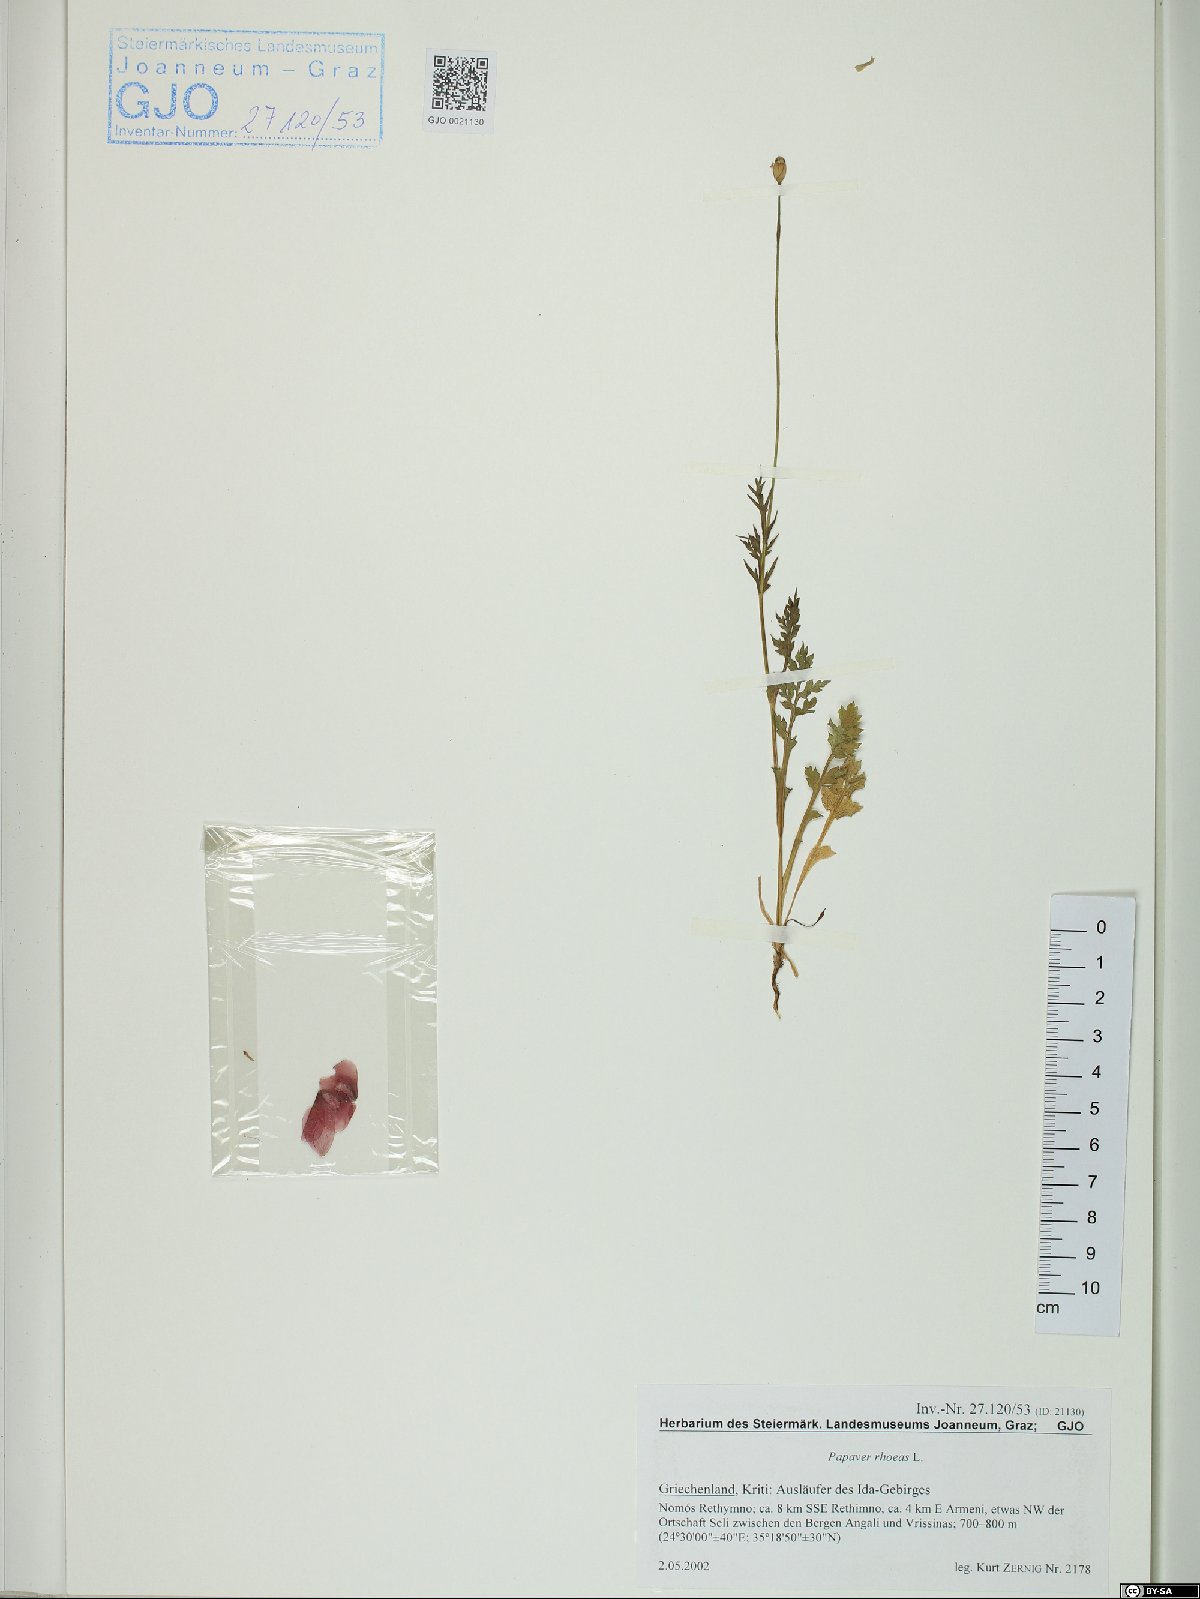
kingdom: Plantae
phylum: Tracheophyta
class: Magnoliopsida
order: Ranunculales
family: Papaveraceae
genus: Papaver
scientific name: Papaver rhoeas
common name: Corn poppy
